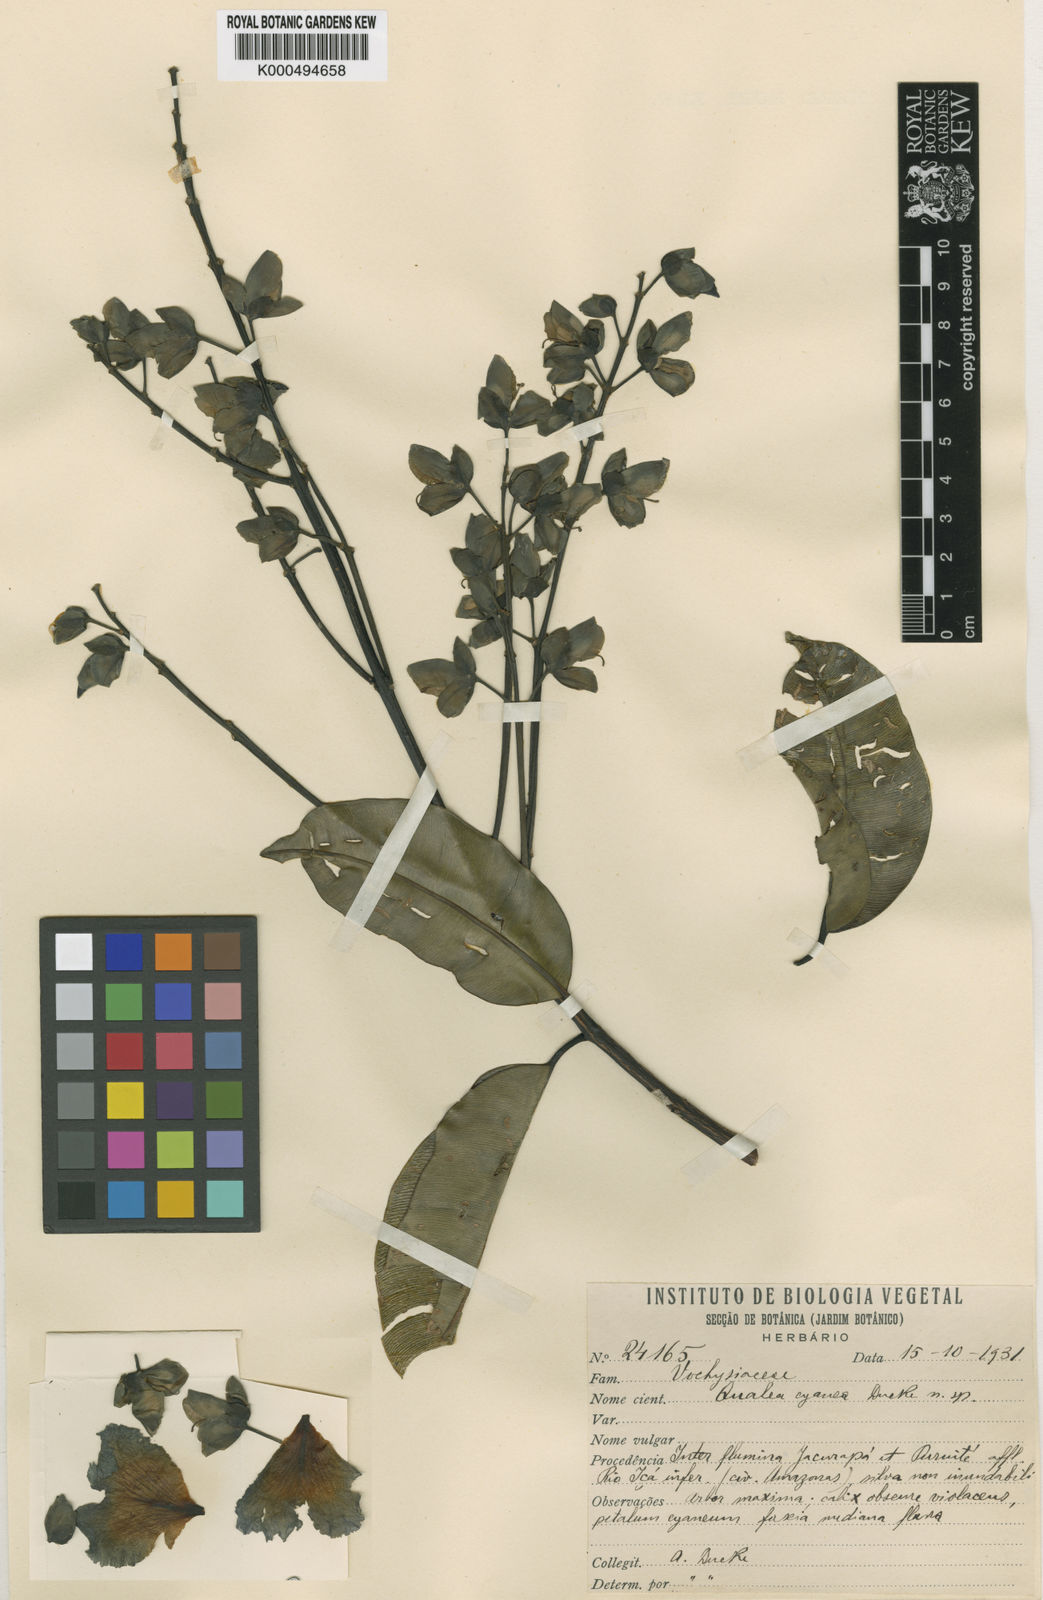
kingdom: Plantae
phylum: Tracheophyta
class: Magnoliopsida
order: Myrtales
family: Vochysiaceae
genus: Qualea
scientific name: Qualea cyanea
